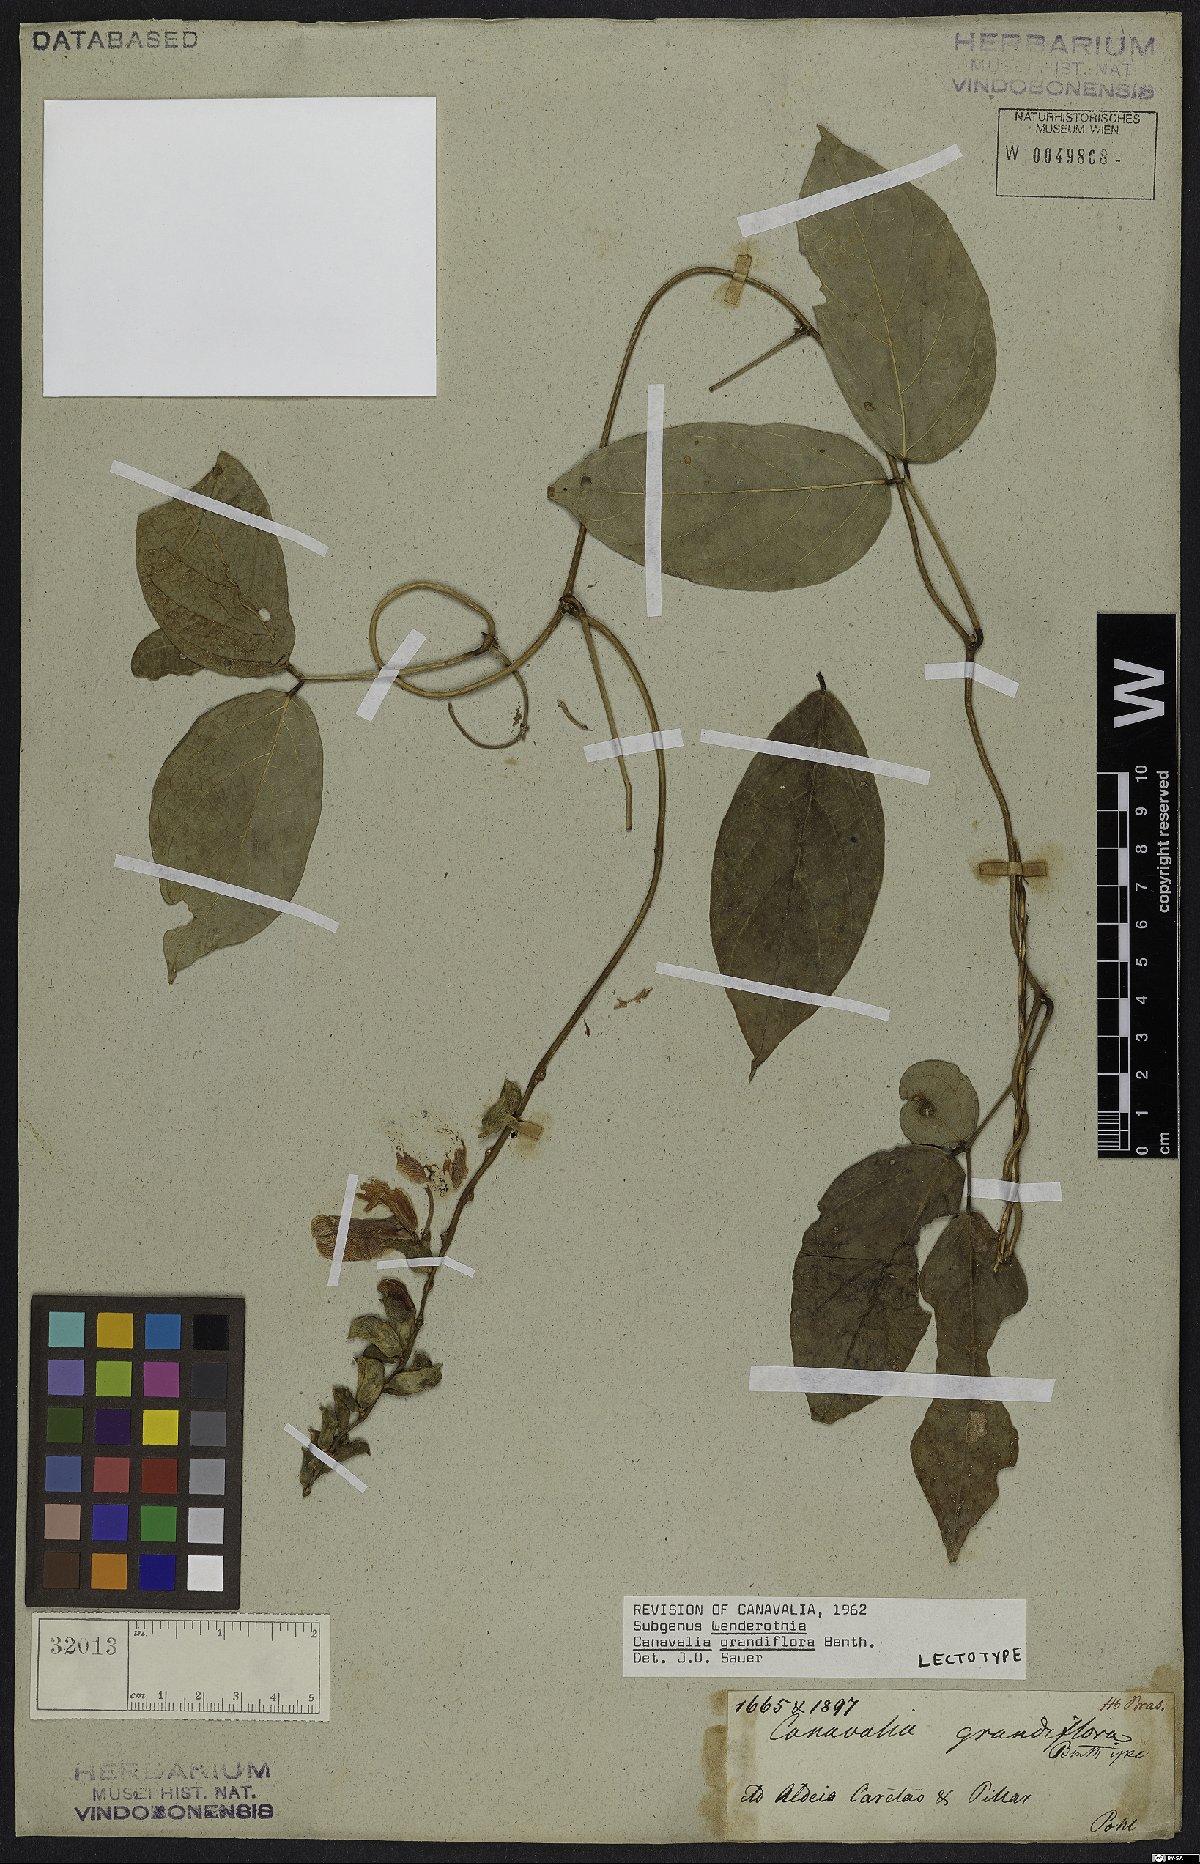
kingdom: Plantae
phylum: Tracheophyta
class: Magnoliopsida
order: Fabales
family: Fabaceae
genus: Canavalia
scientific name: Canavalia grandiflora
